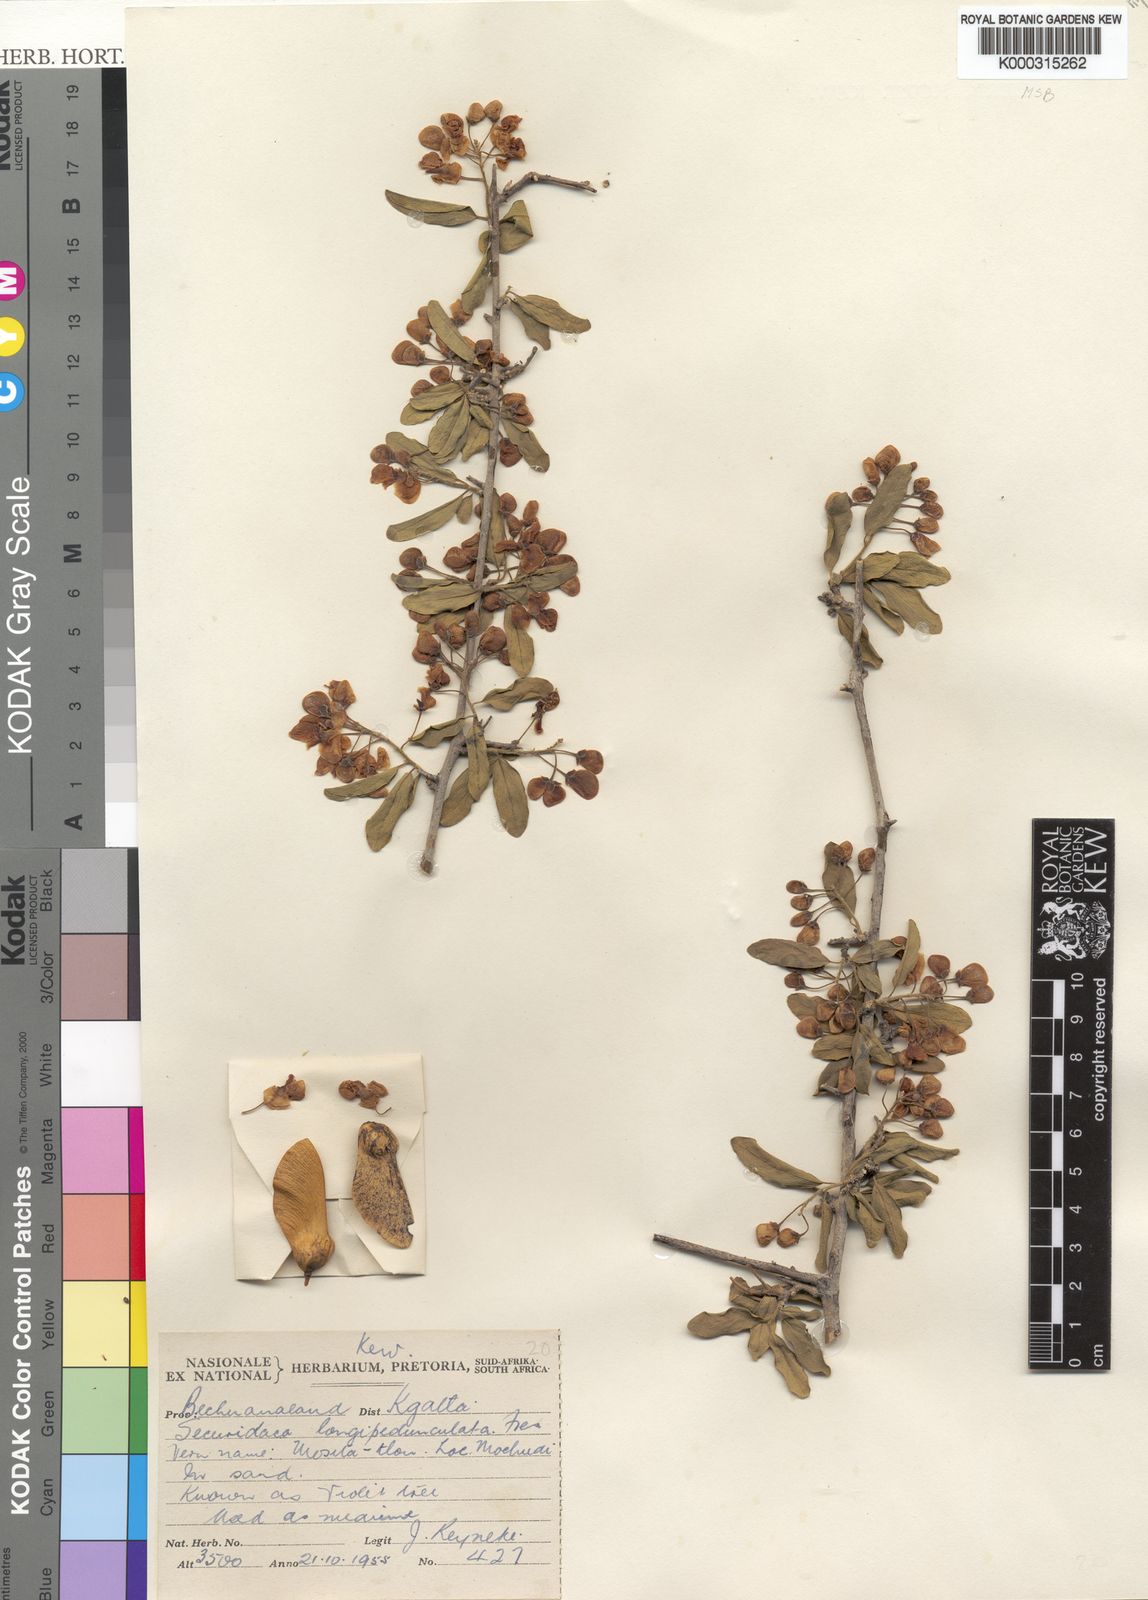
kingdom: Plantae
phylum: Tracheophyta
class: Magnoliopsida
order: Fabales
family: Polygalaceae
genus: Securidaca
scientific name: Securidaca longepedunculata
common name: Violet tree
